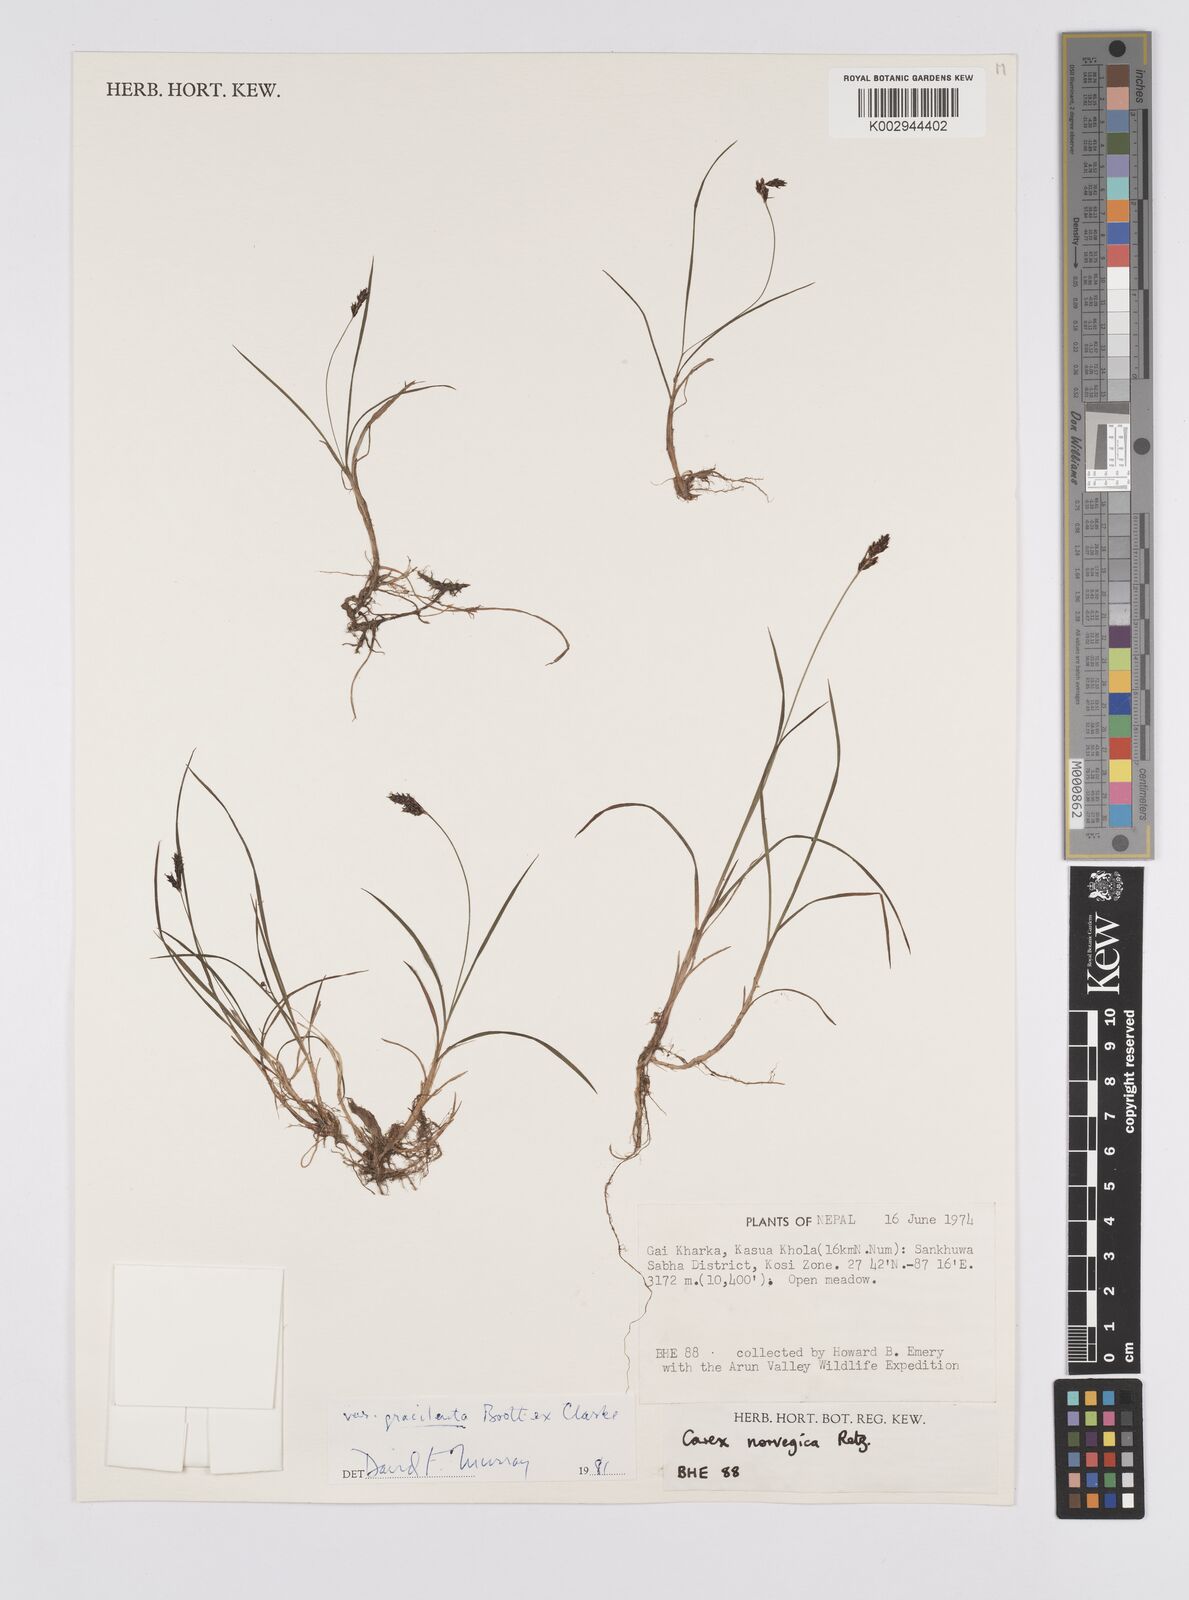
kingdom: Plantae
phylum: Tracheophyta
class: Liliopsida
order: Poales
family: Cyperaceae
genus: Carex
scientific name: Carex norvegica
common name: Close-headed alpine-sedge
